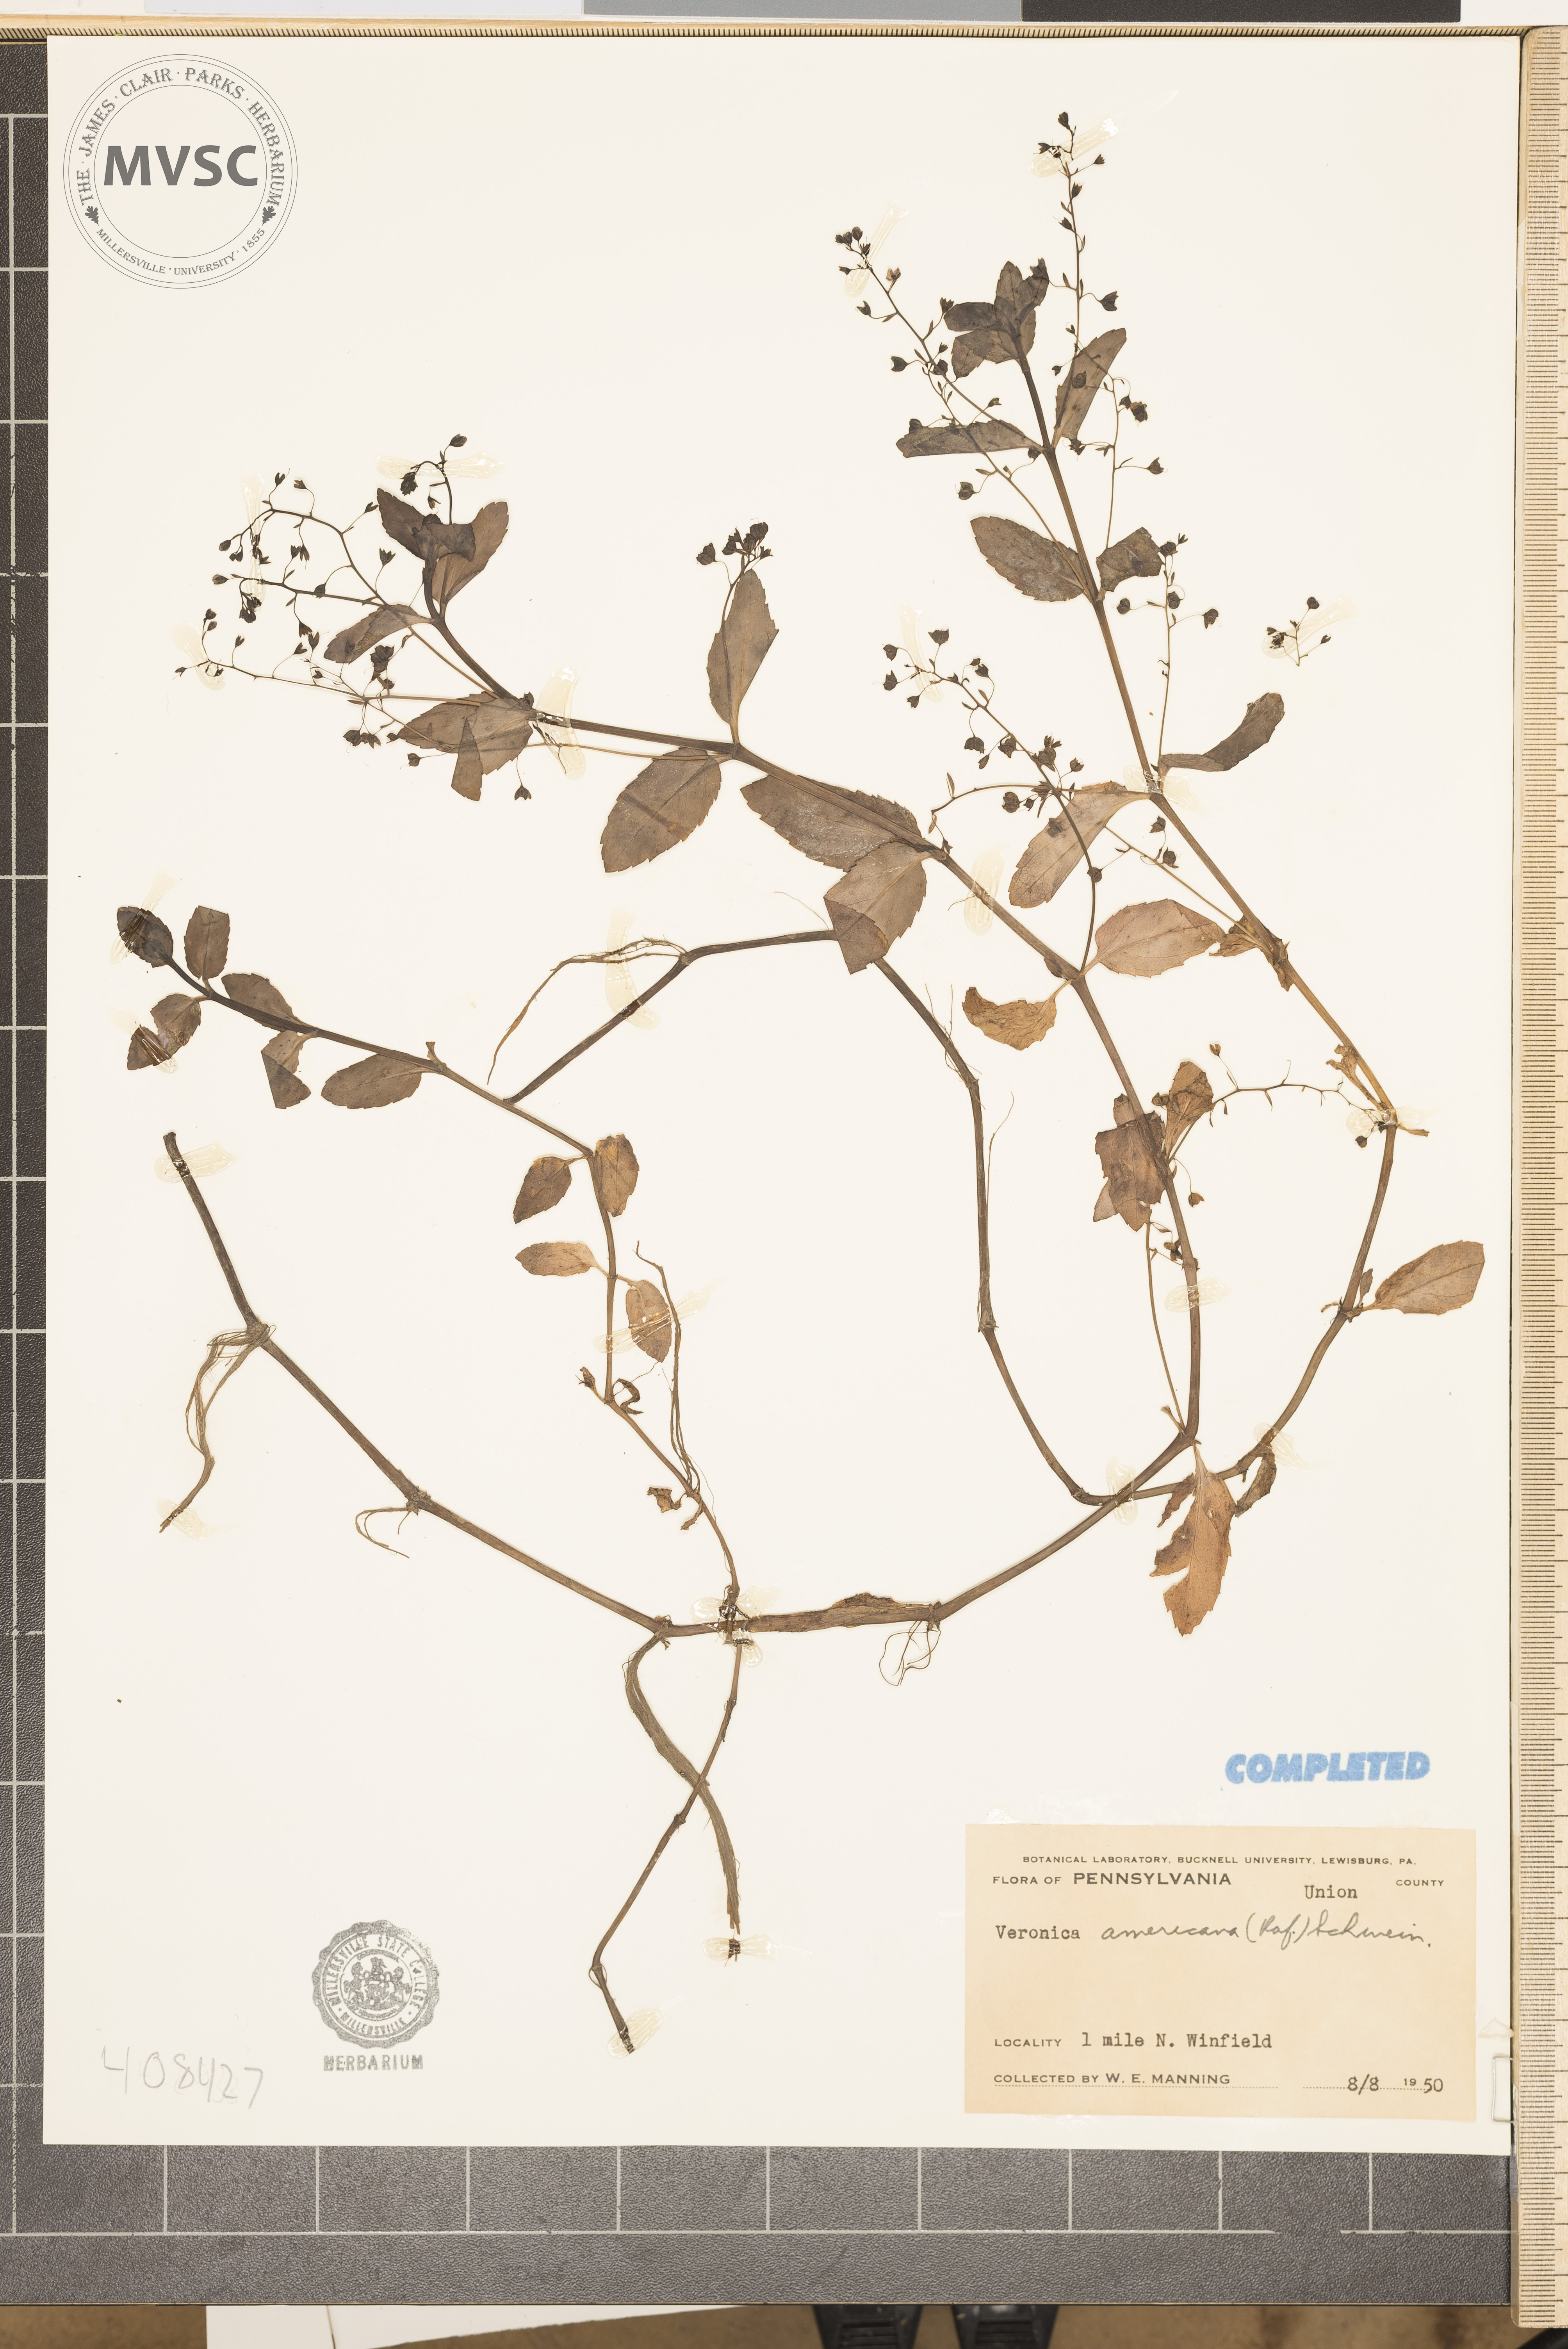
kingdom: Plantae
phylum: Tracheophyta
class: Magnoliopsida
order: Lamiales
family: Plantaginaceae
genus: Veronica
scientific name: Veronica americana
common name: American brooklime
